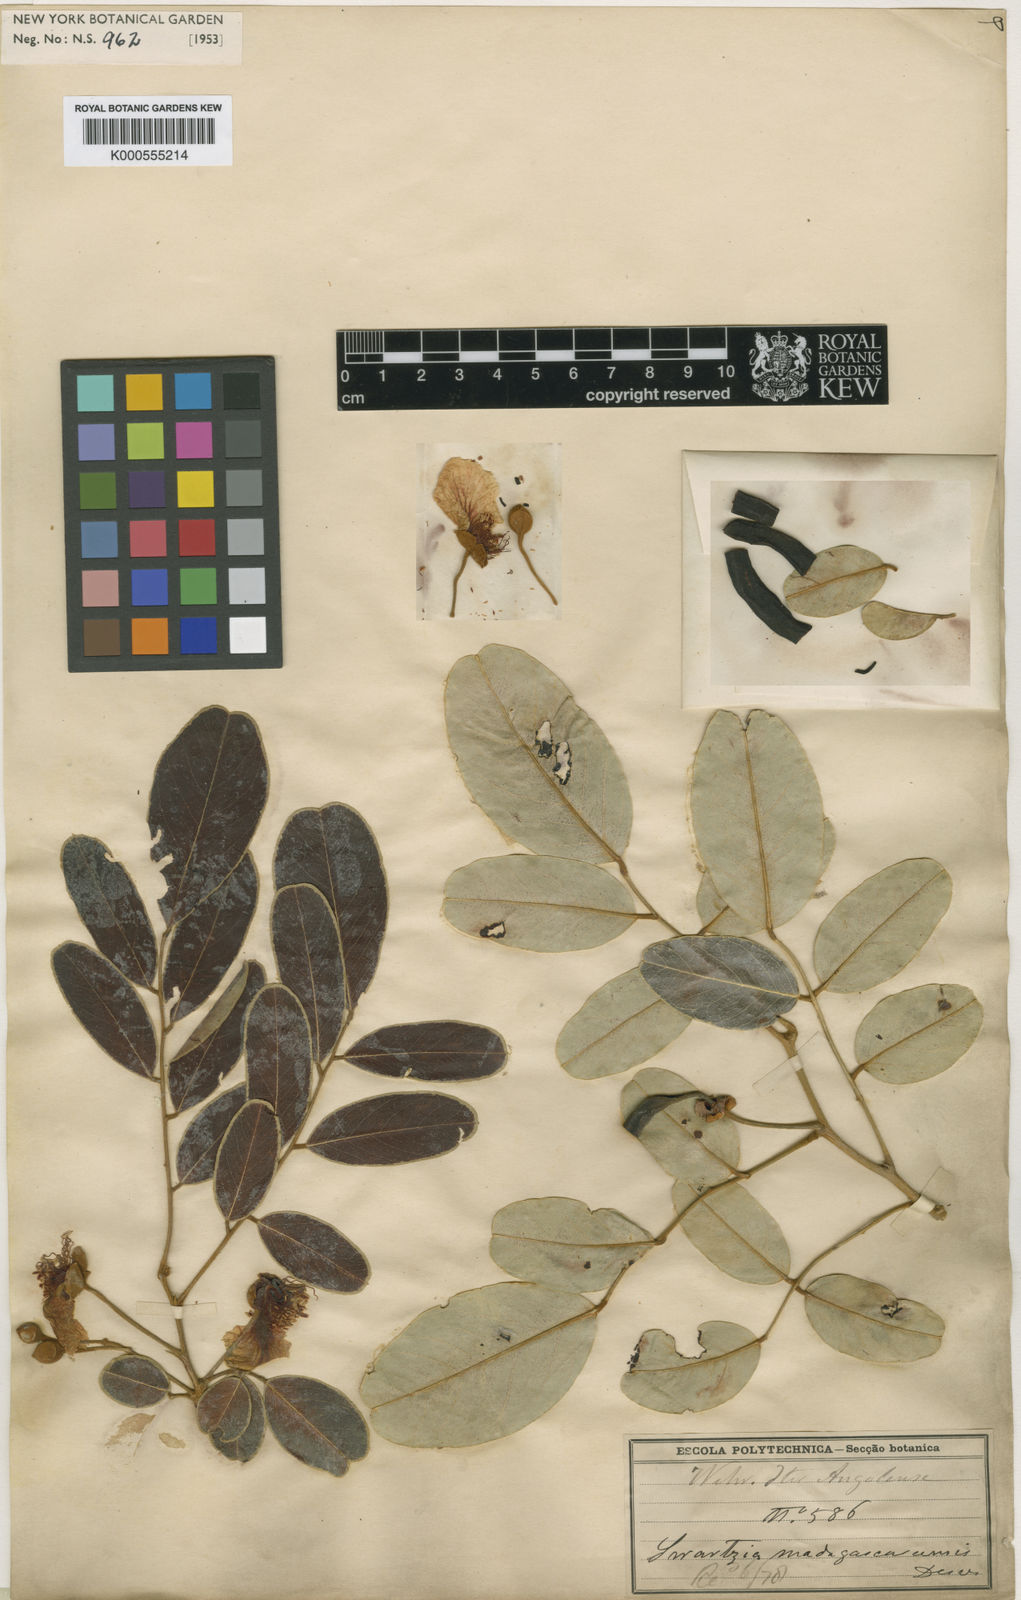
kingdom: Plantae
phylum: Tracheophyta
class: Magnoliopsida
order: Fabales
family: Fabaceae
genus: Bobgunnia
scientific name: Bobgunnia madagascariensis
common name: Snake bean plant
